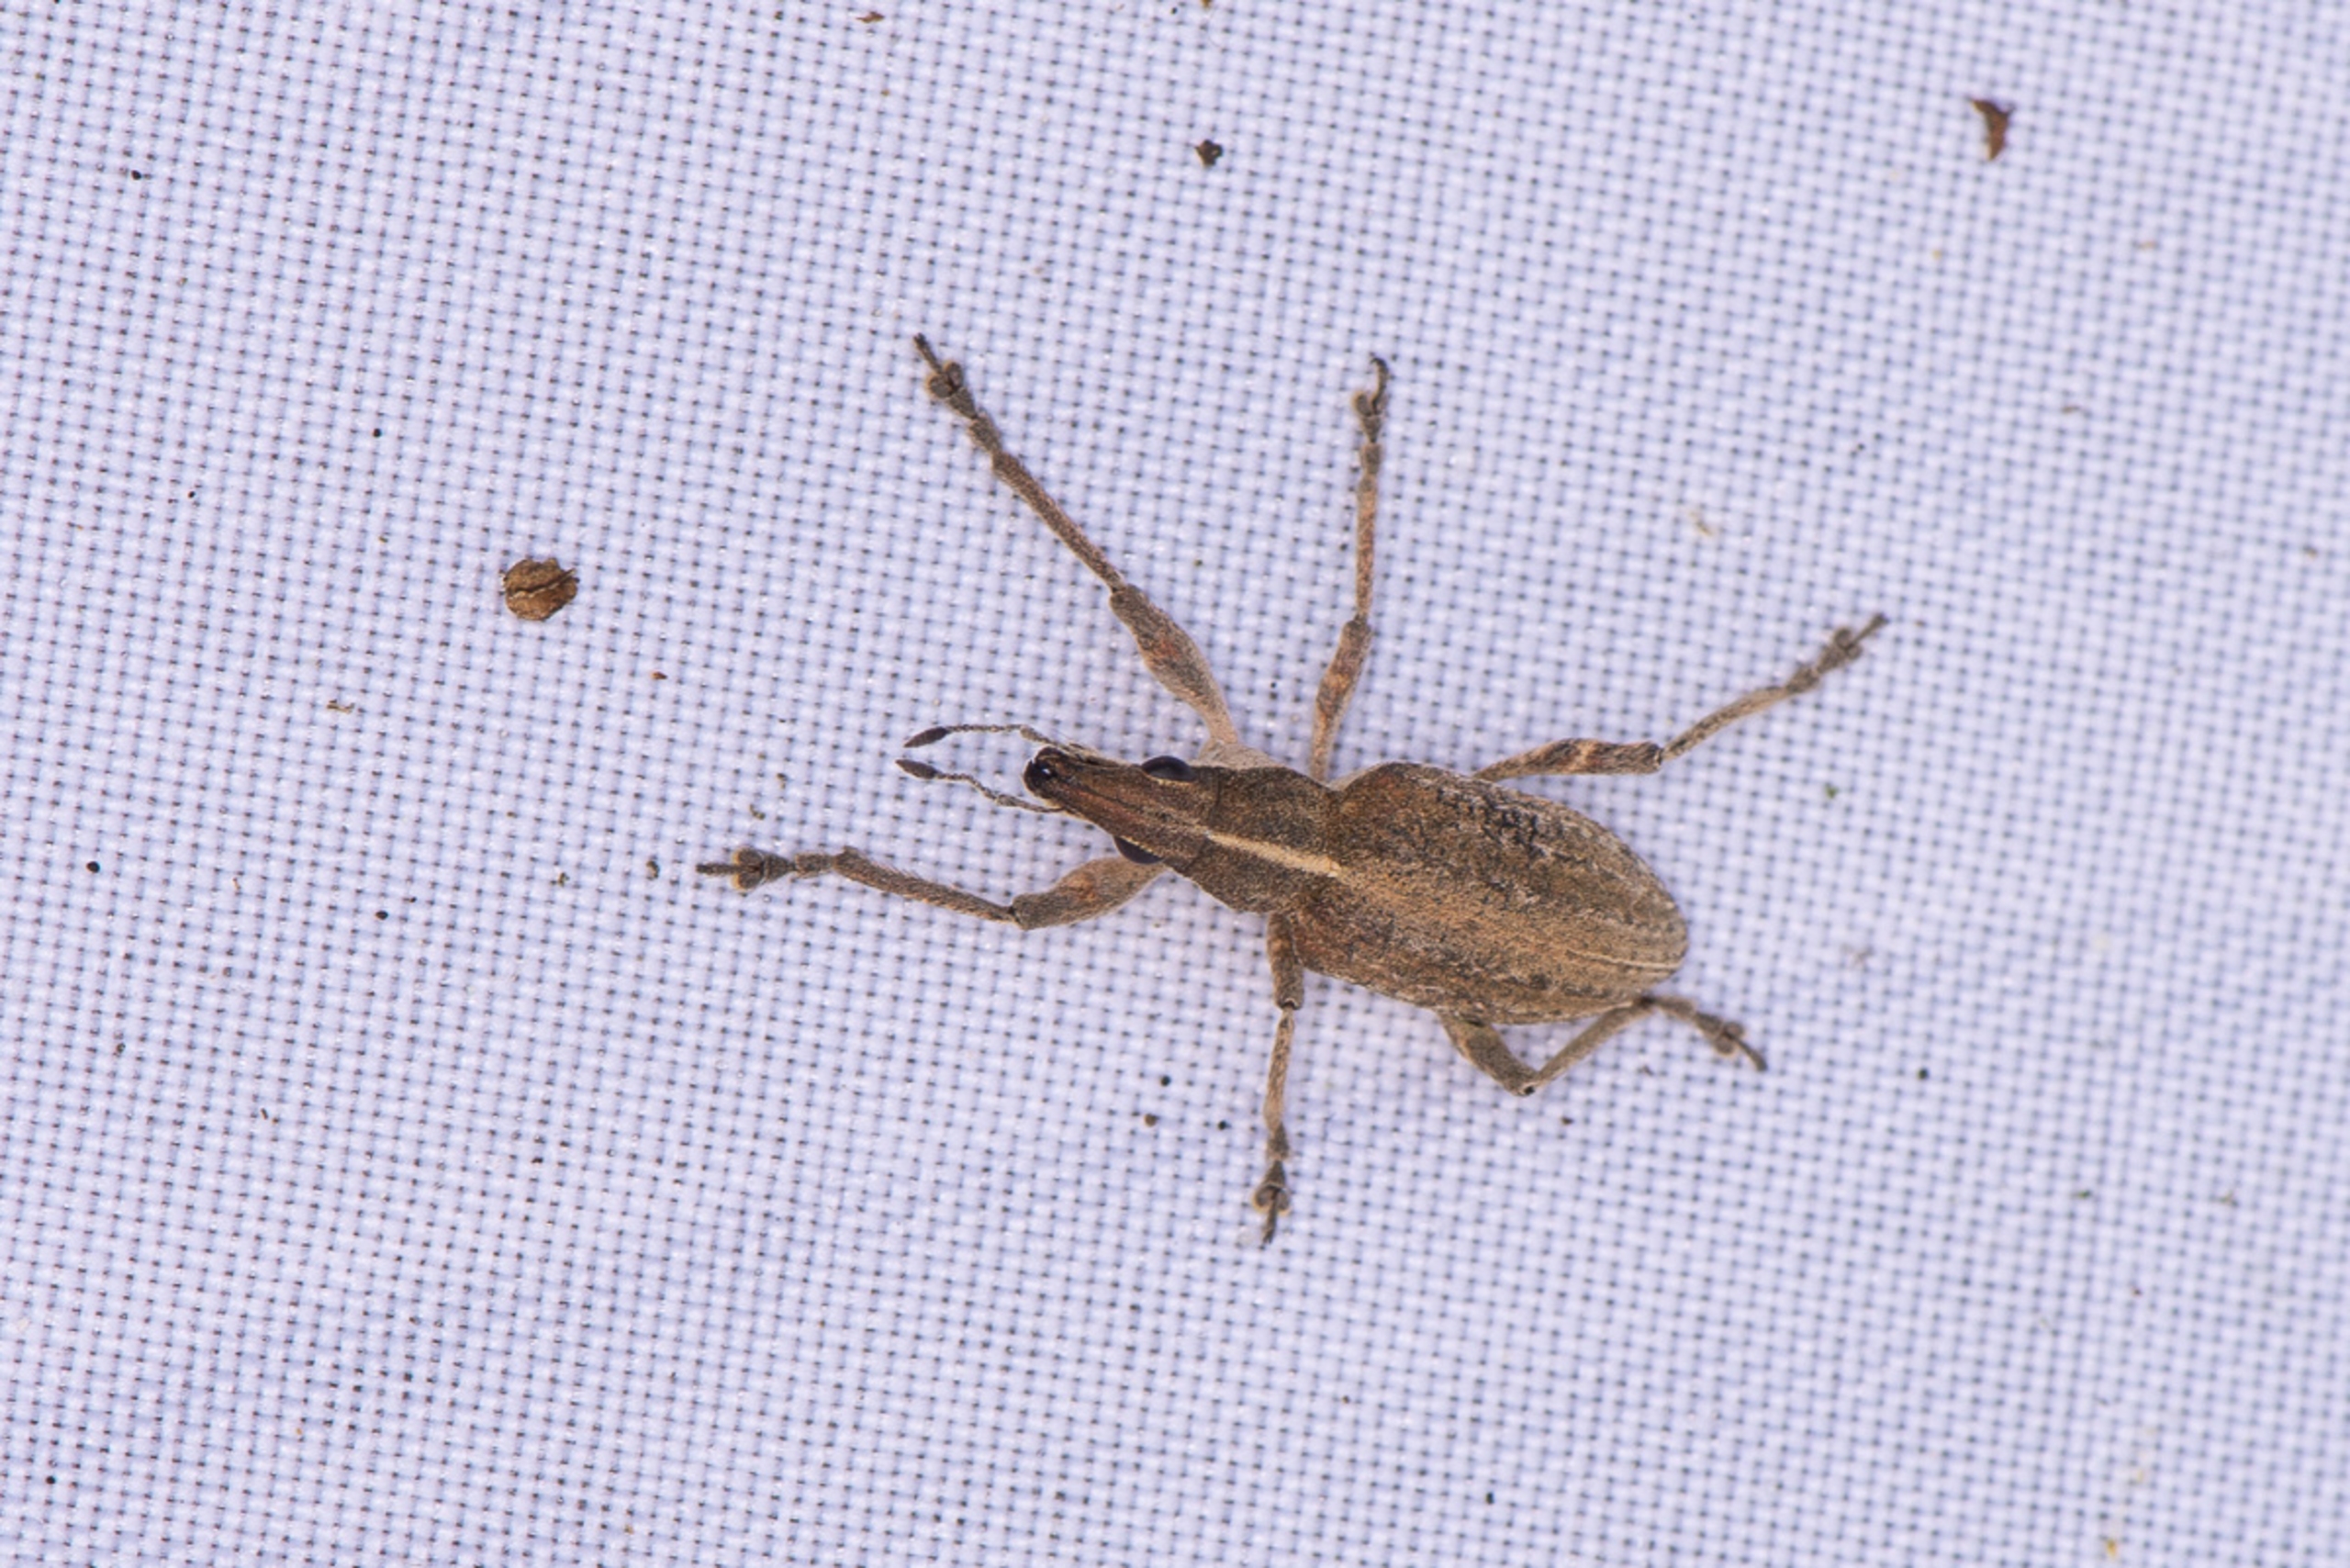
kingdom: Animalia
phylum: Arthropoda
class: Insecta
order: Coleoptera
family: Curculionidae
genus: Charagmus
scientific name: Charagmus gressorius
